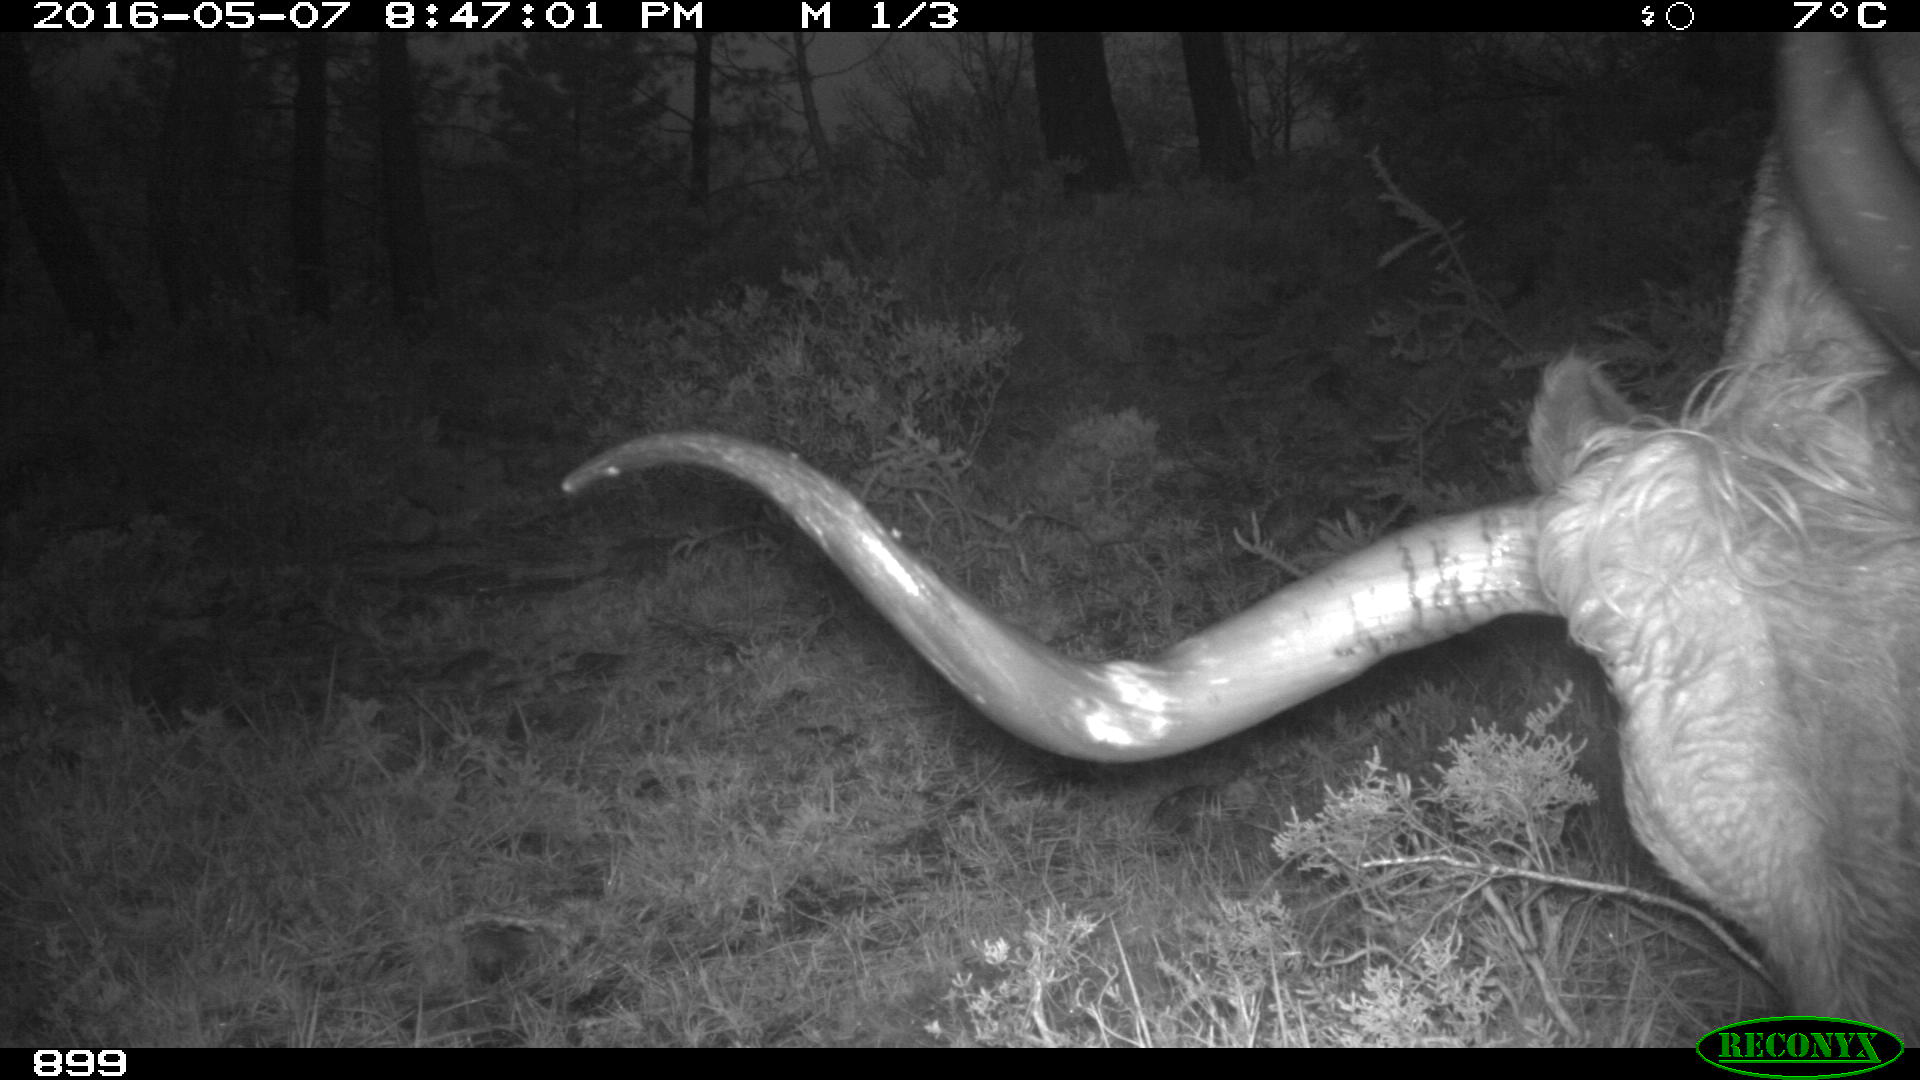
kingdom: Animalia
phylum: Chordata
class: Mammalia
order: Artiodactyla
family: Bovidae
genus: Bos
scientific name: Bos taurus
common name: Domesticated cattle
